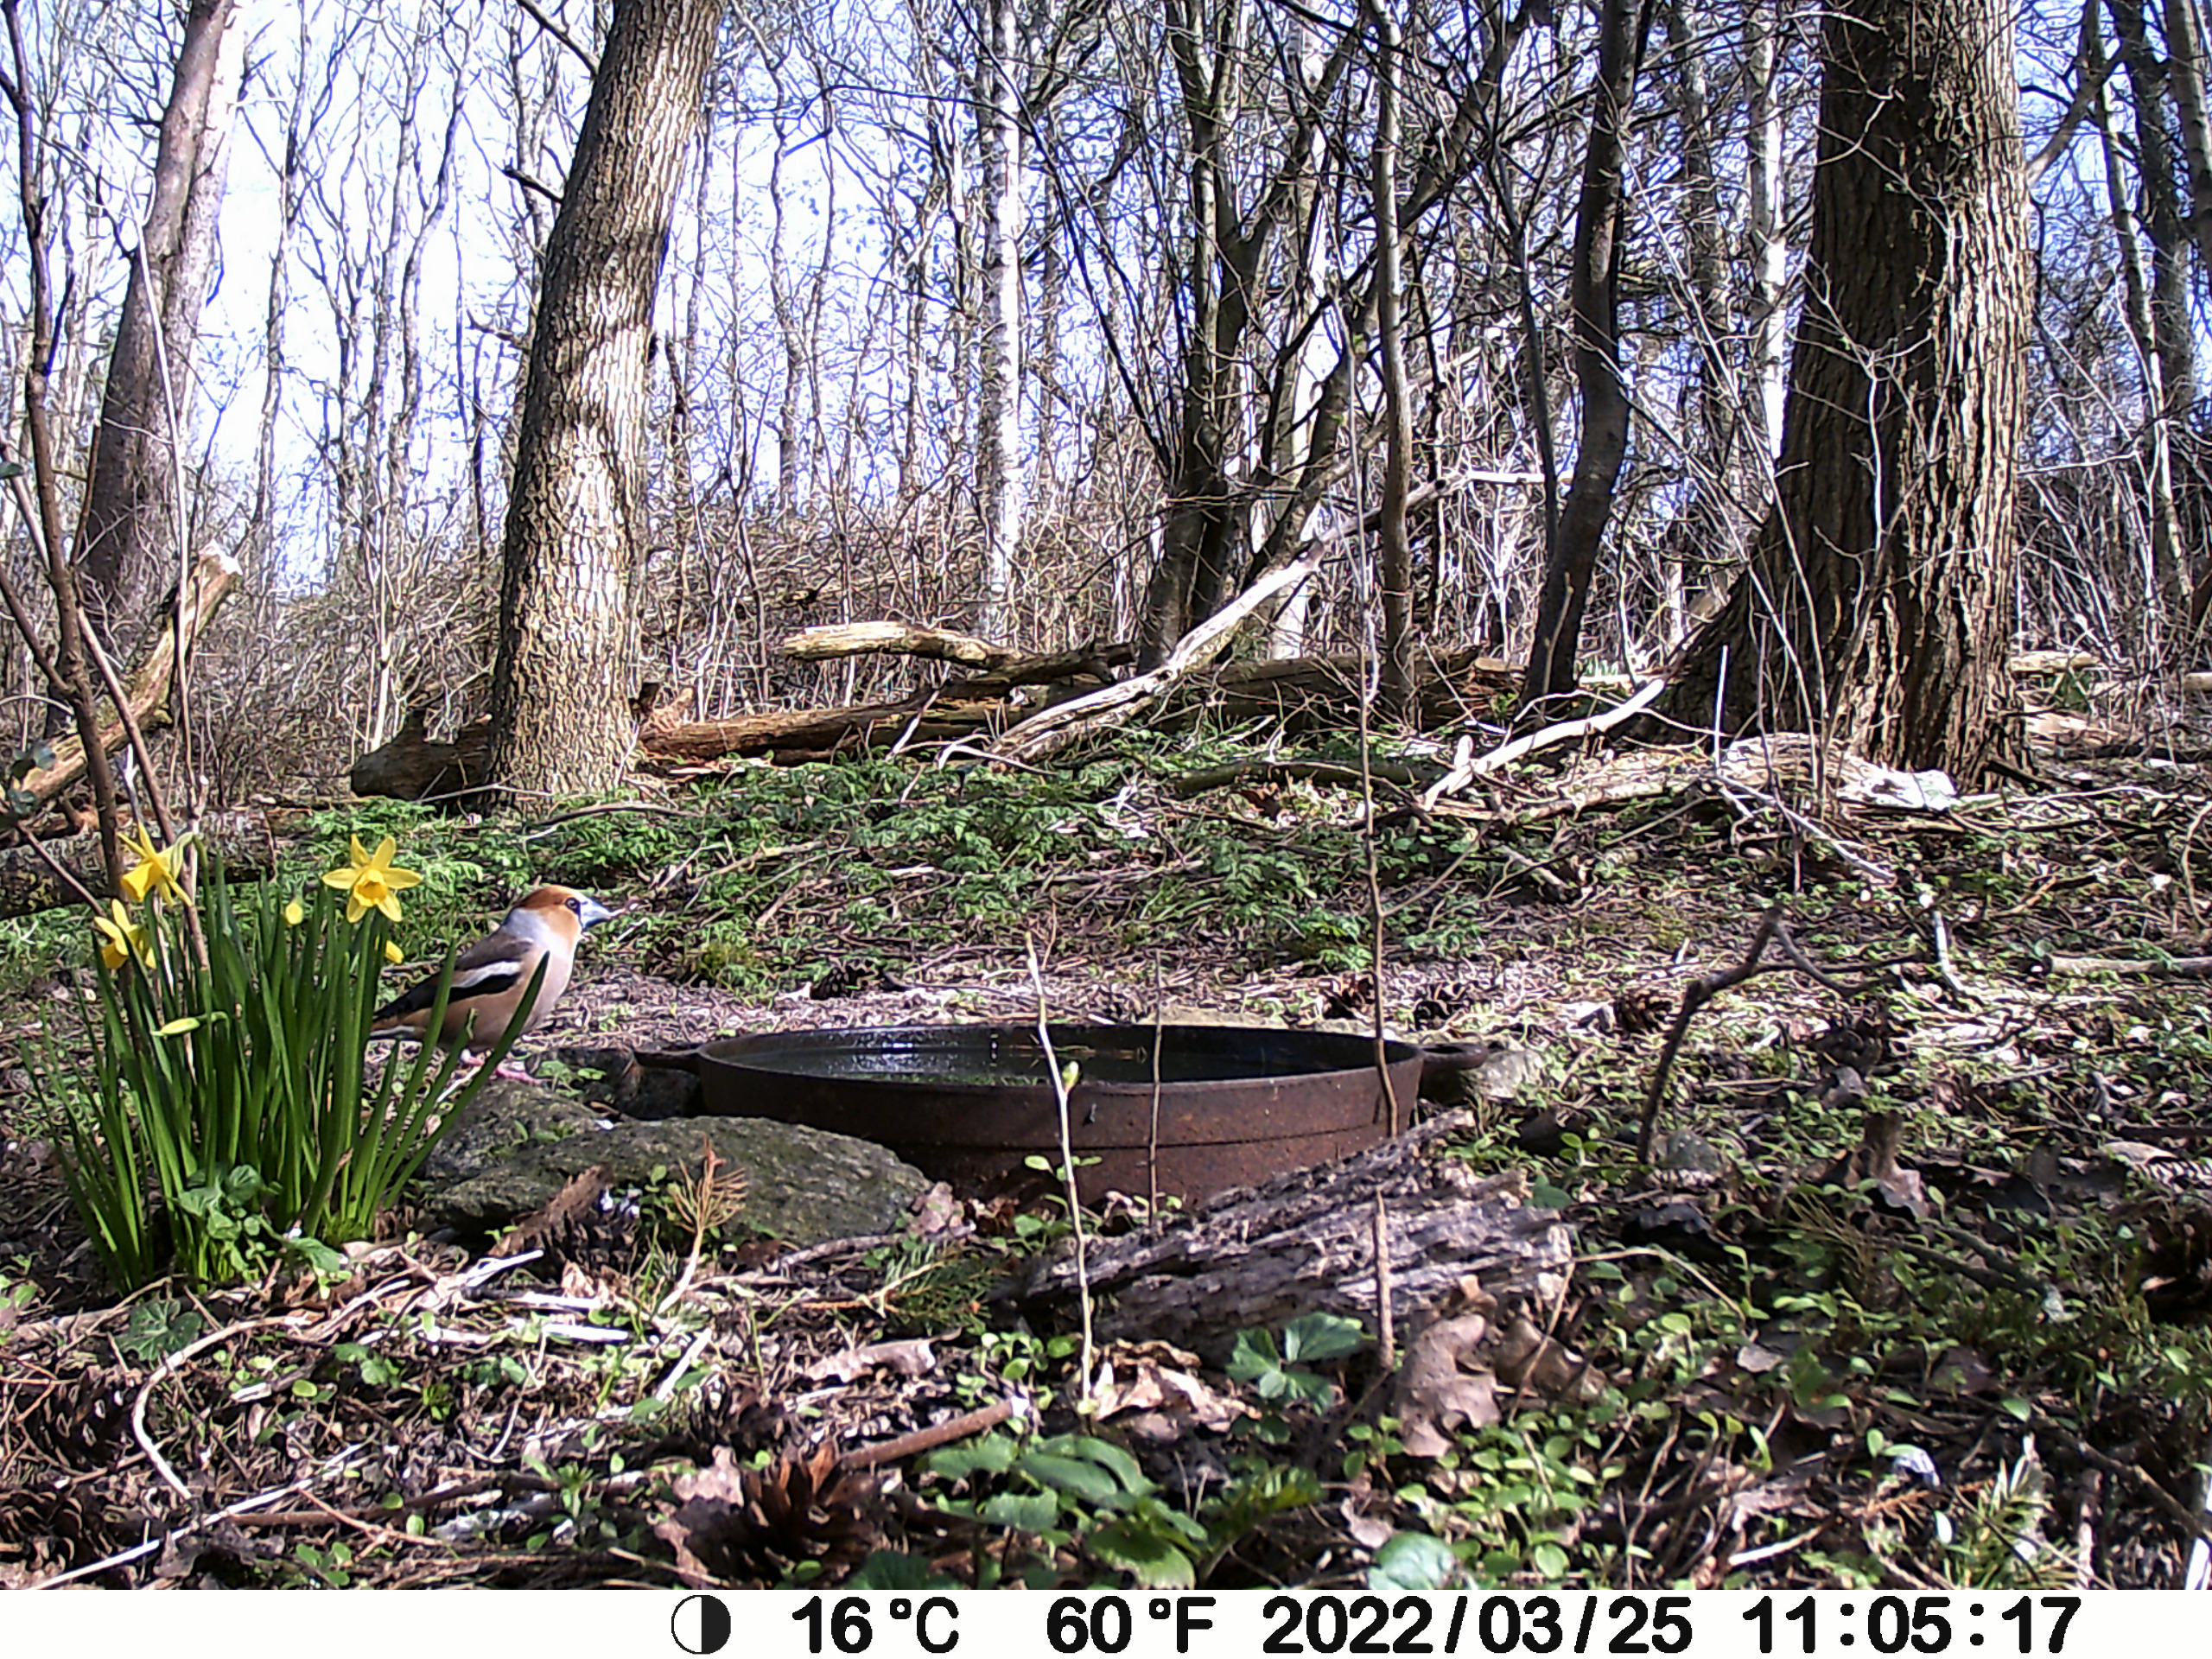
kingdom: Animalia
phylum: Chordata
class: Aves
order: Passeriformes
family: Fringillidae
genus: Coccothraustes
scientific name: Coccothraustes coccothraustes
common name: Kernebider
